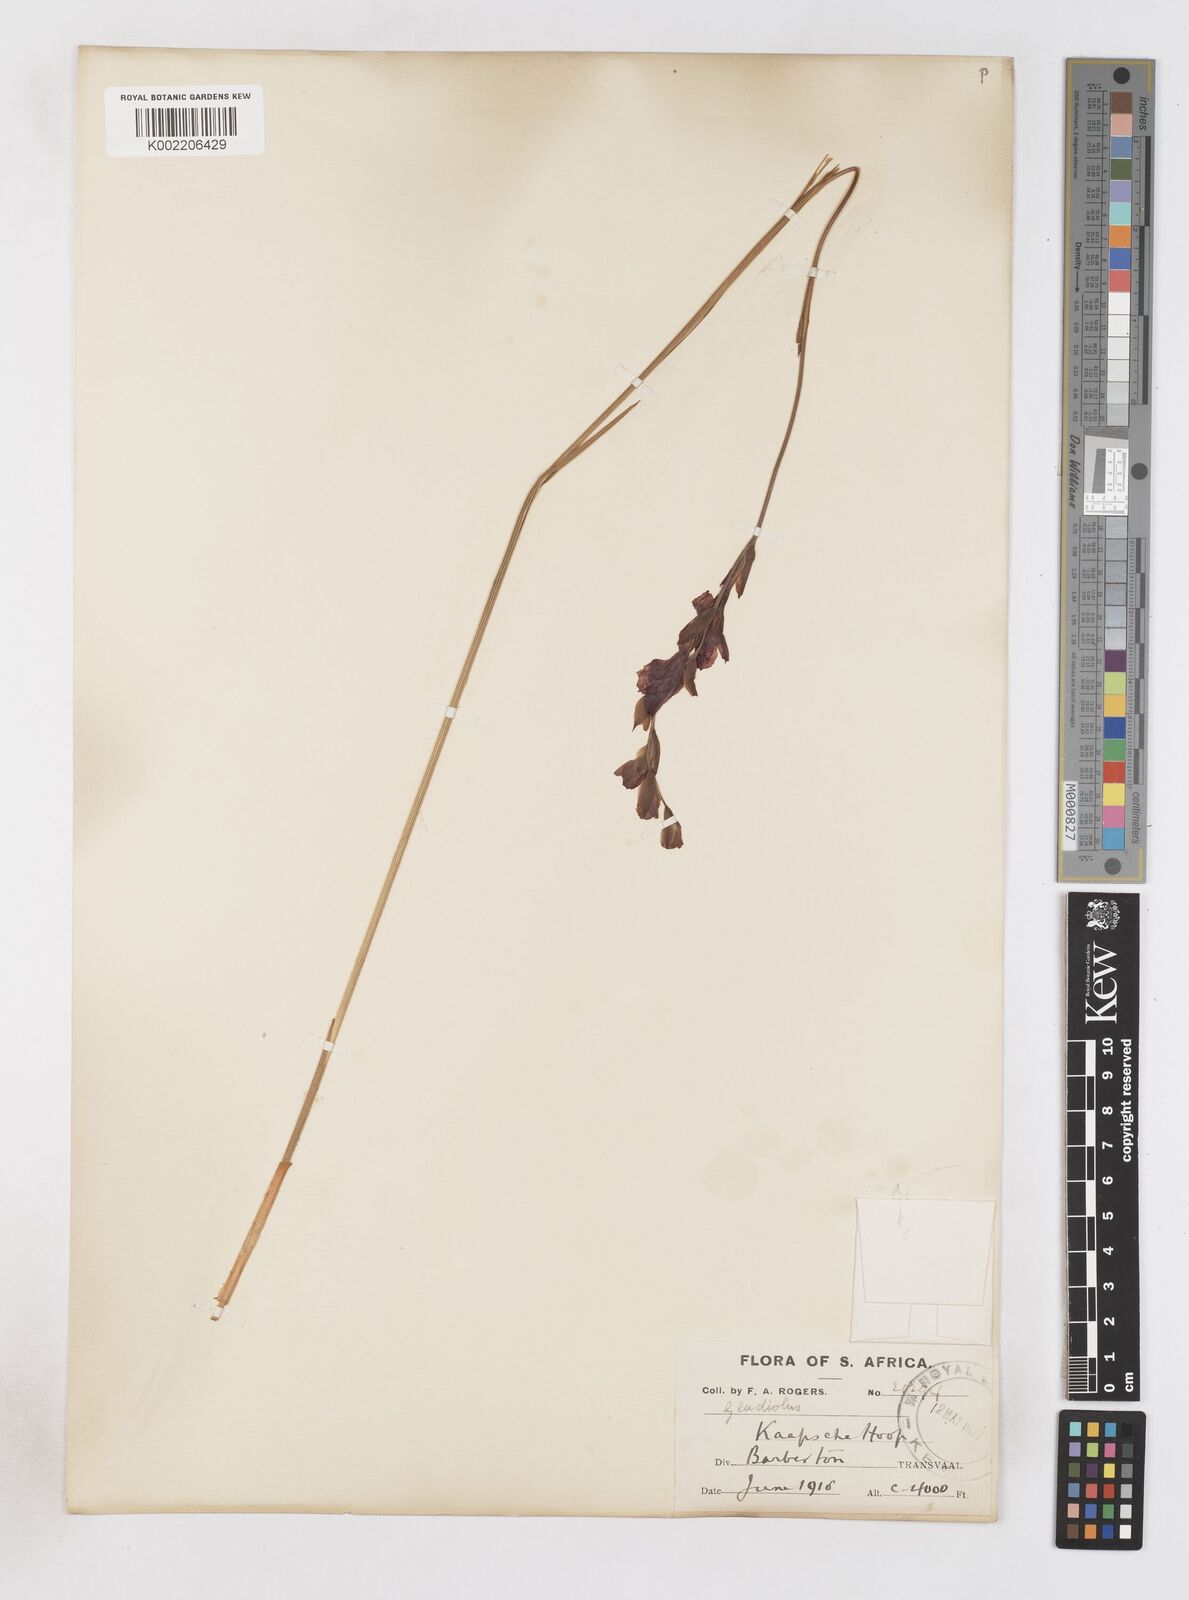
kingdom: Plantae
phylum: Tracheophyta
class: Liliopsida
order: Asparagales
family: Iridaceae
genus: Gladiolus
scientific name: Gladiolus woodii
